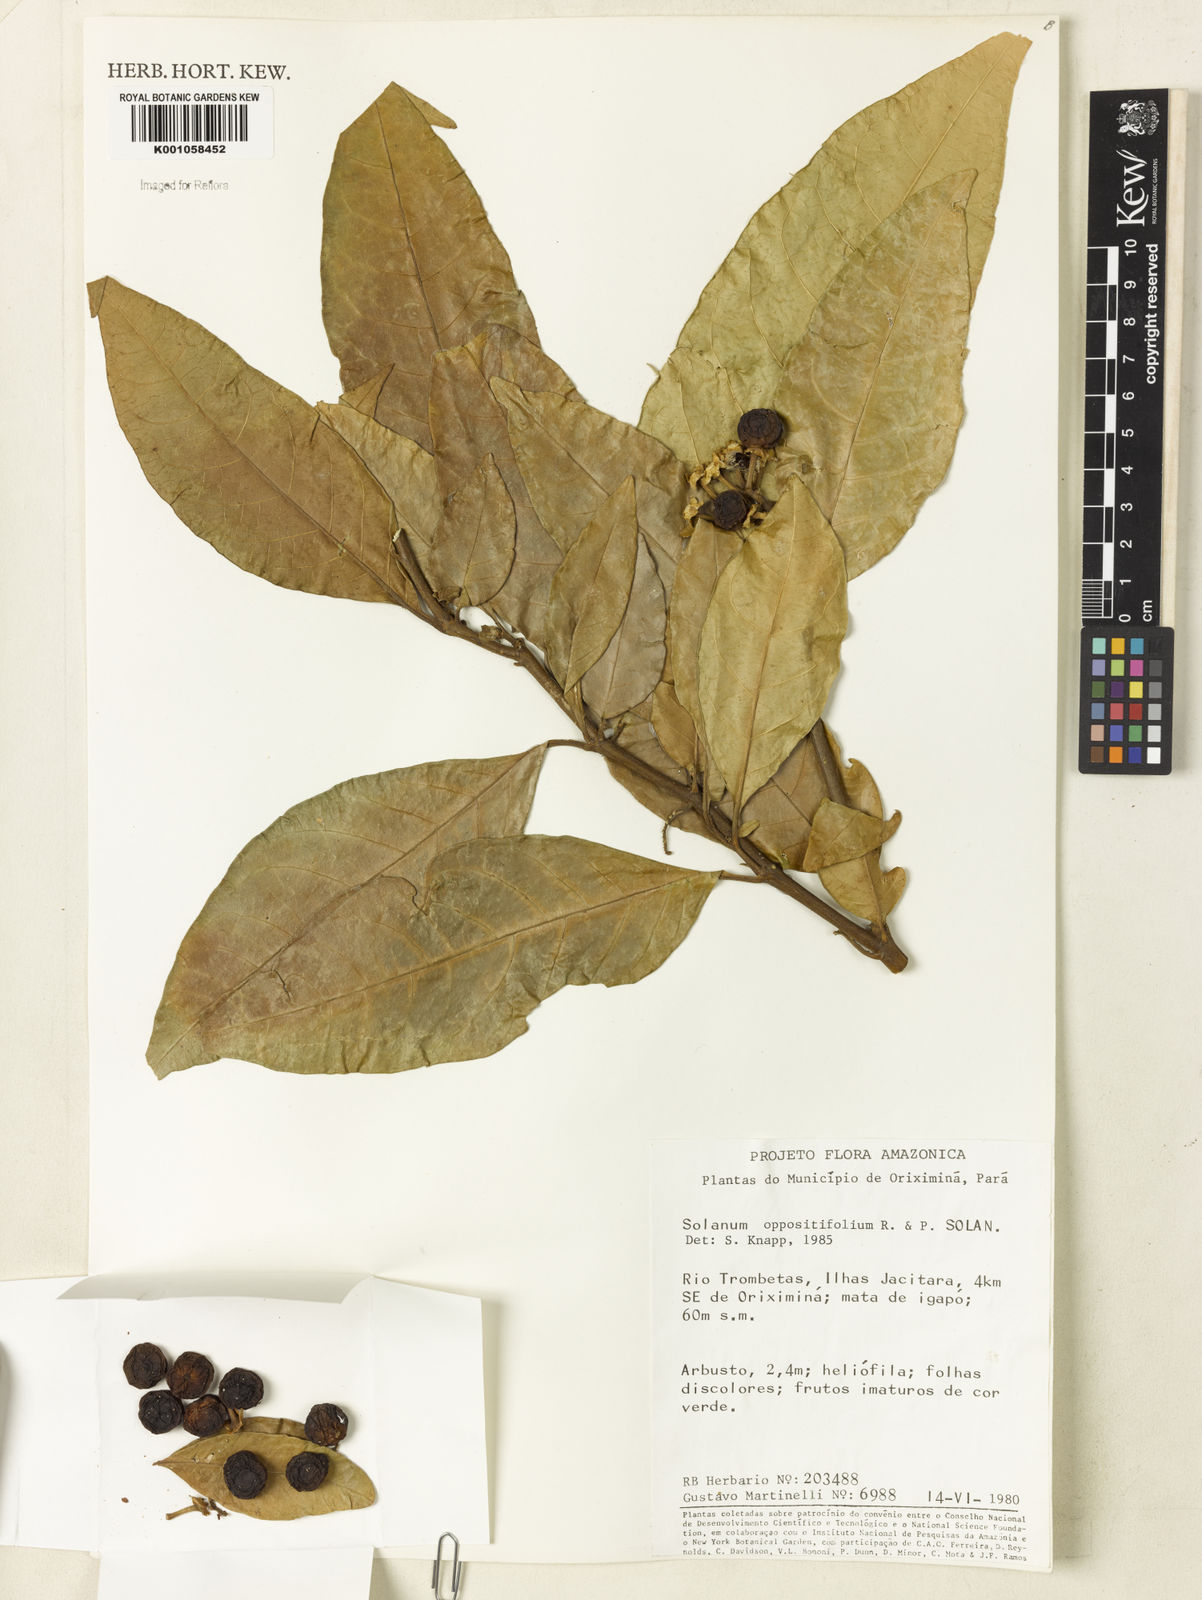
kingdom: Plantae
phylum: Tracheophyta
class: Magnoliopsida
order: Solanales
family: Solanaceae
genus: Solanum
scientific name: Solanum oppositifolium
